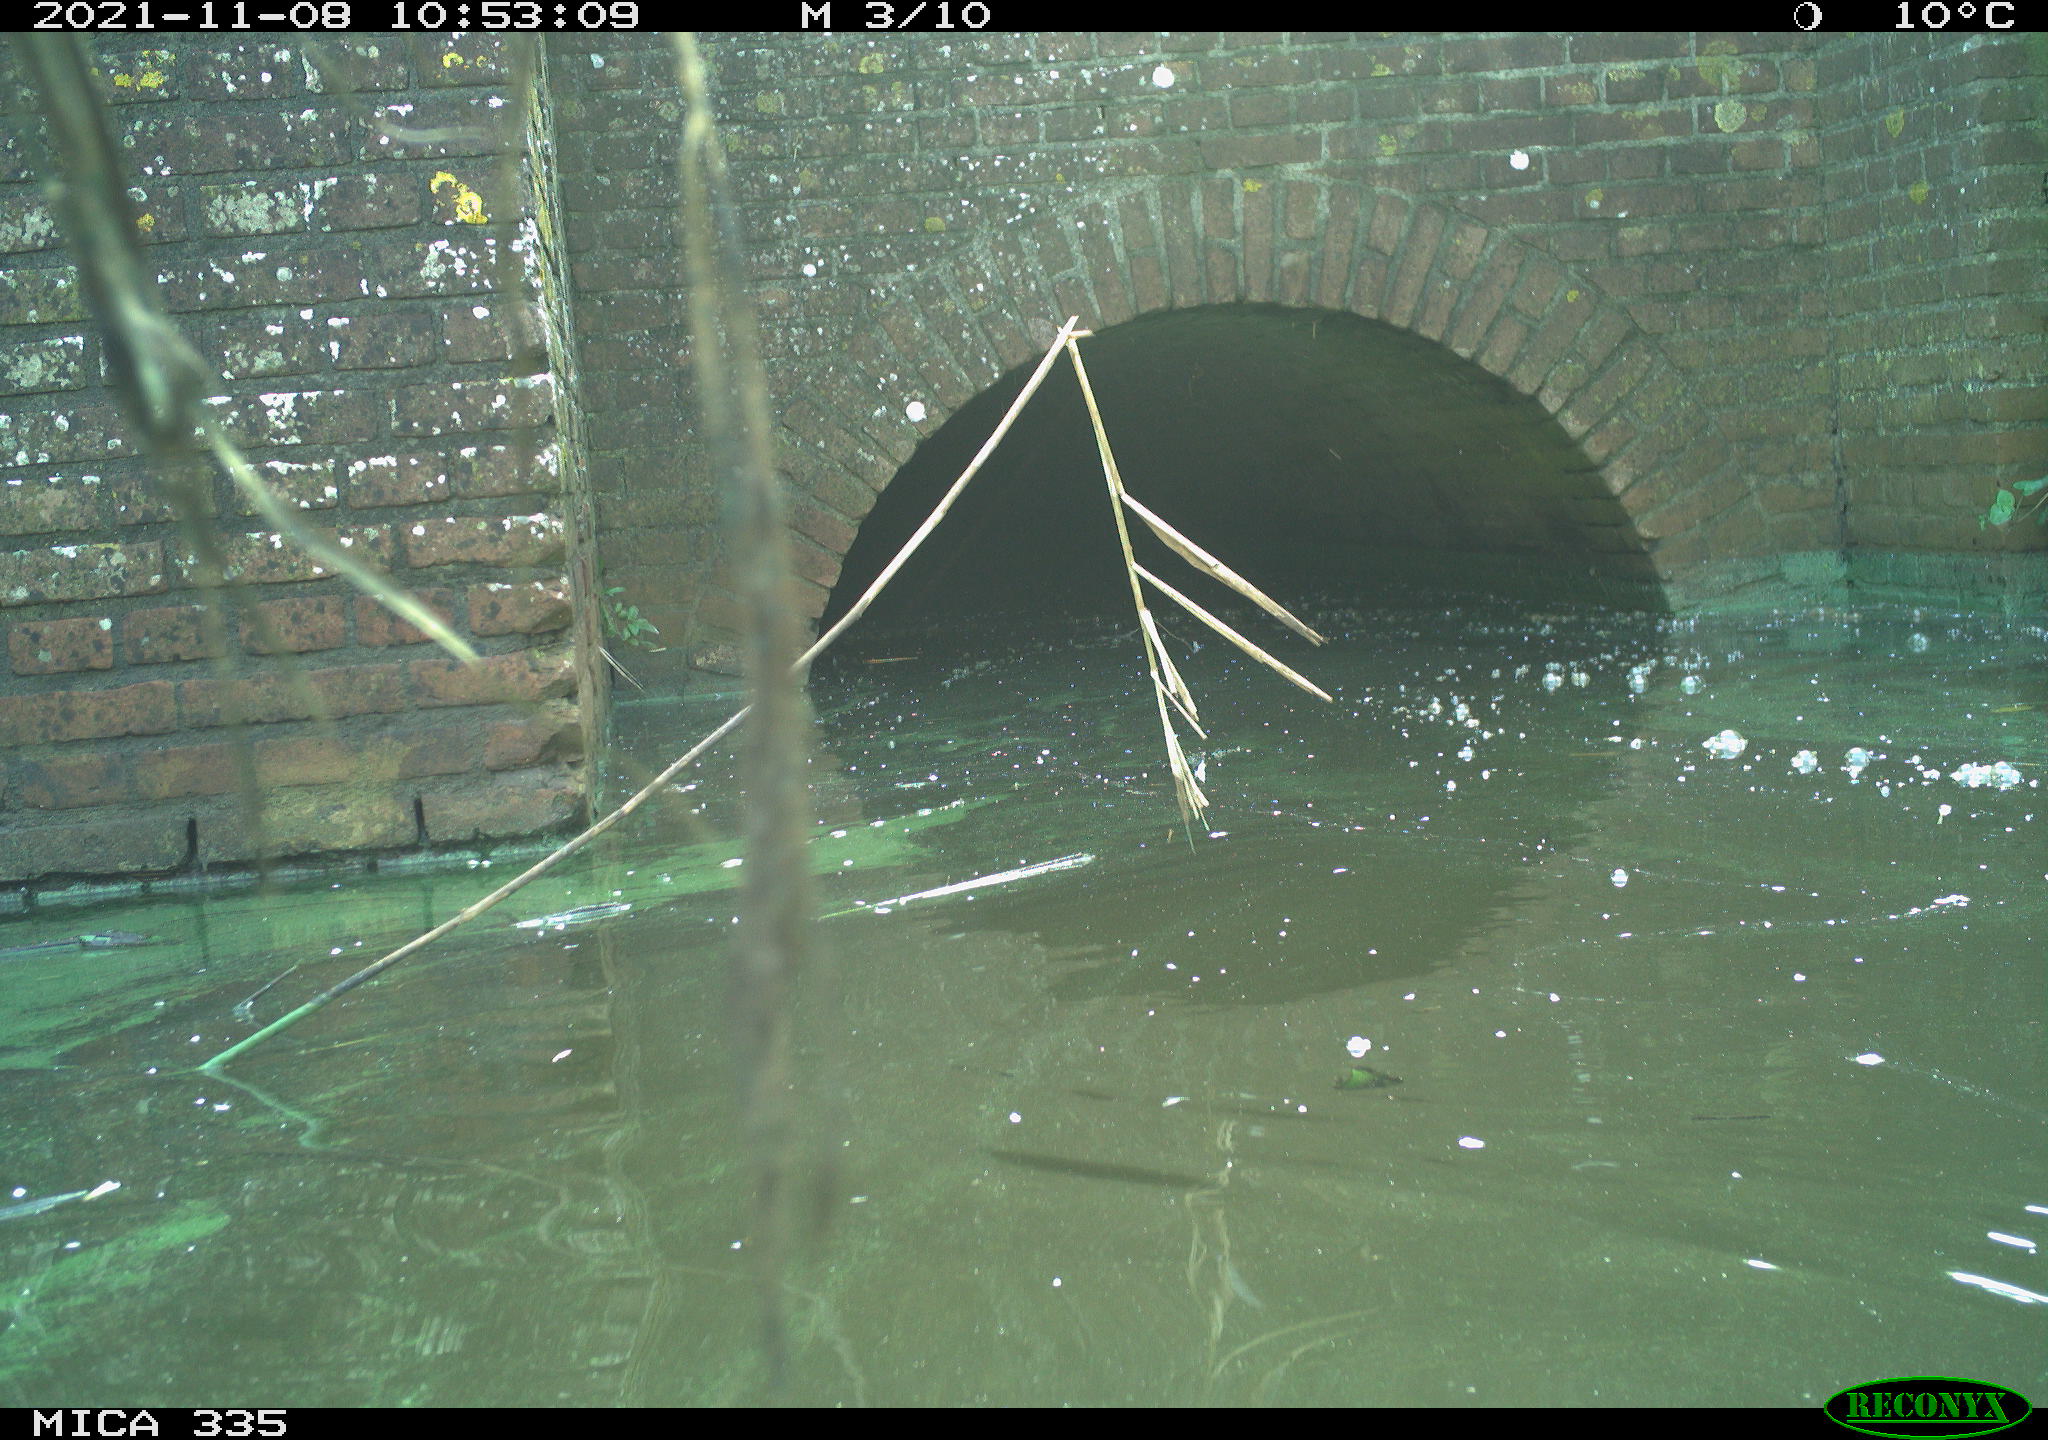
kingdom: Animalia
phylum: Chordata
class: Aves
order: Suliformes
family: Phalacrocoracidae
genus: Phalacrocorax
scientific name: Phalacrocorax carbo
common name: Great cormorant
